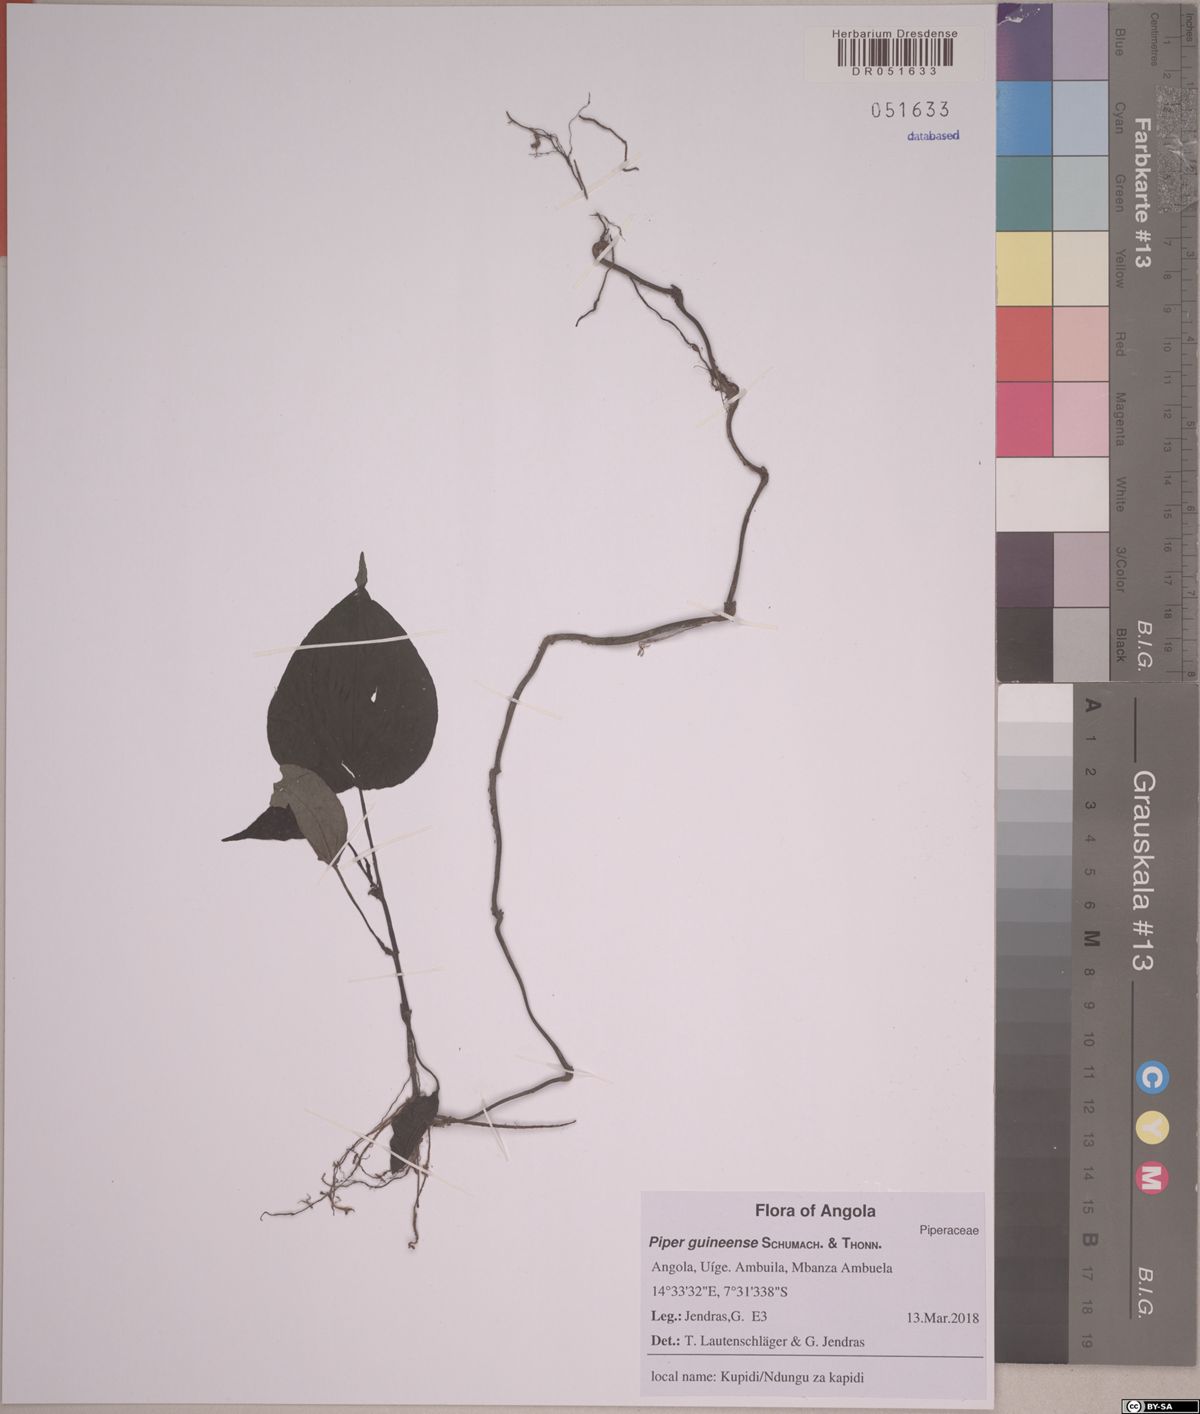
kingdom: Plantae
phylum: Tracheophyta
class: Magnoliopsida
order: Piperales
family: Piperaceae
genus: Piper
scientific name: Piper guineense
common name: Benin pepper
